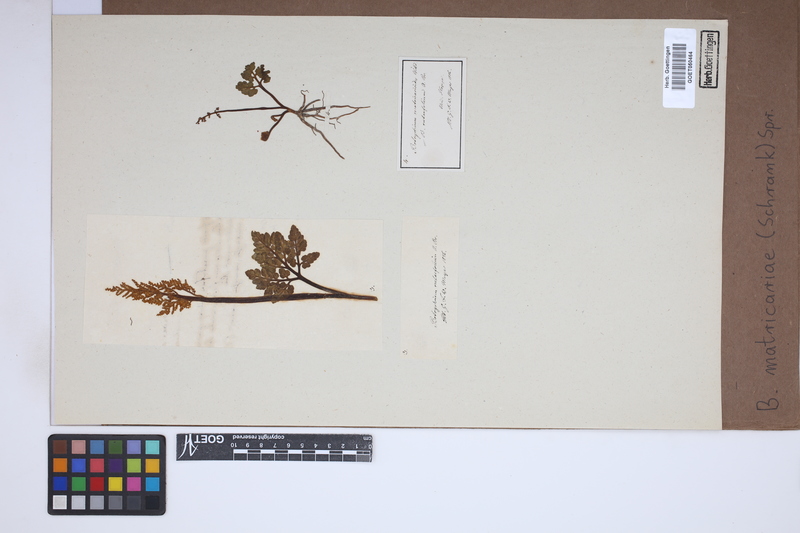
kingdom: Plantae
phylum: Tracheophyta
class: Polypodiopsida
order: Ophioglossales
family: Ophioglossaceae
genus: Sceptridium
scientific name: Sceptridium multifidum
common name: Leathery grape fern
